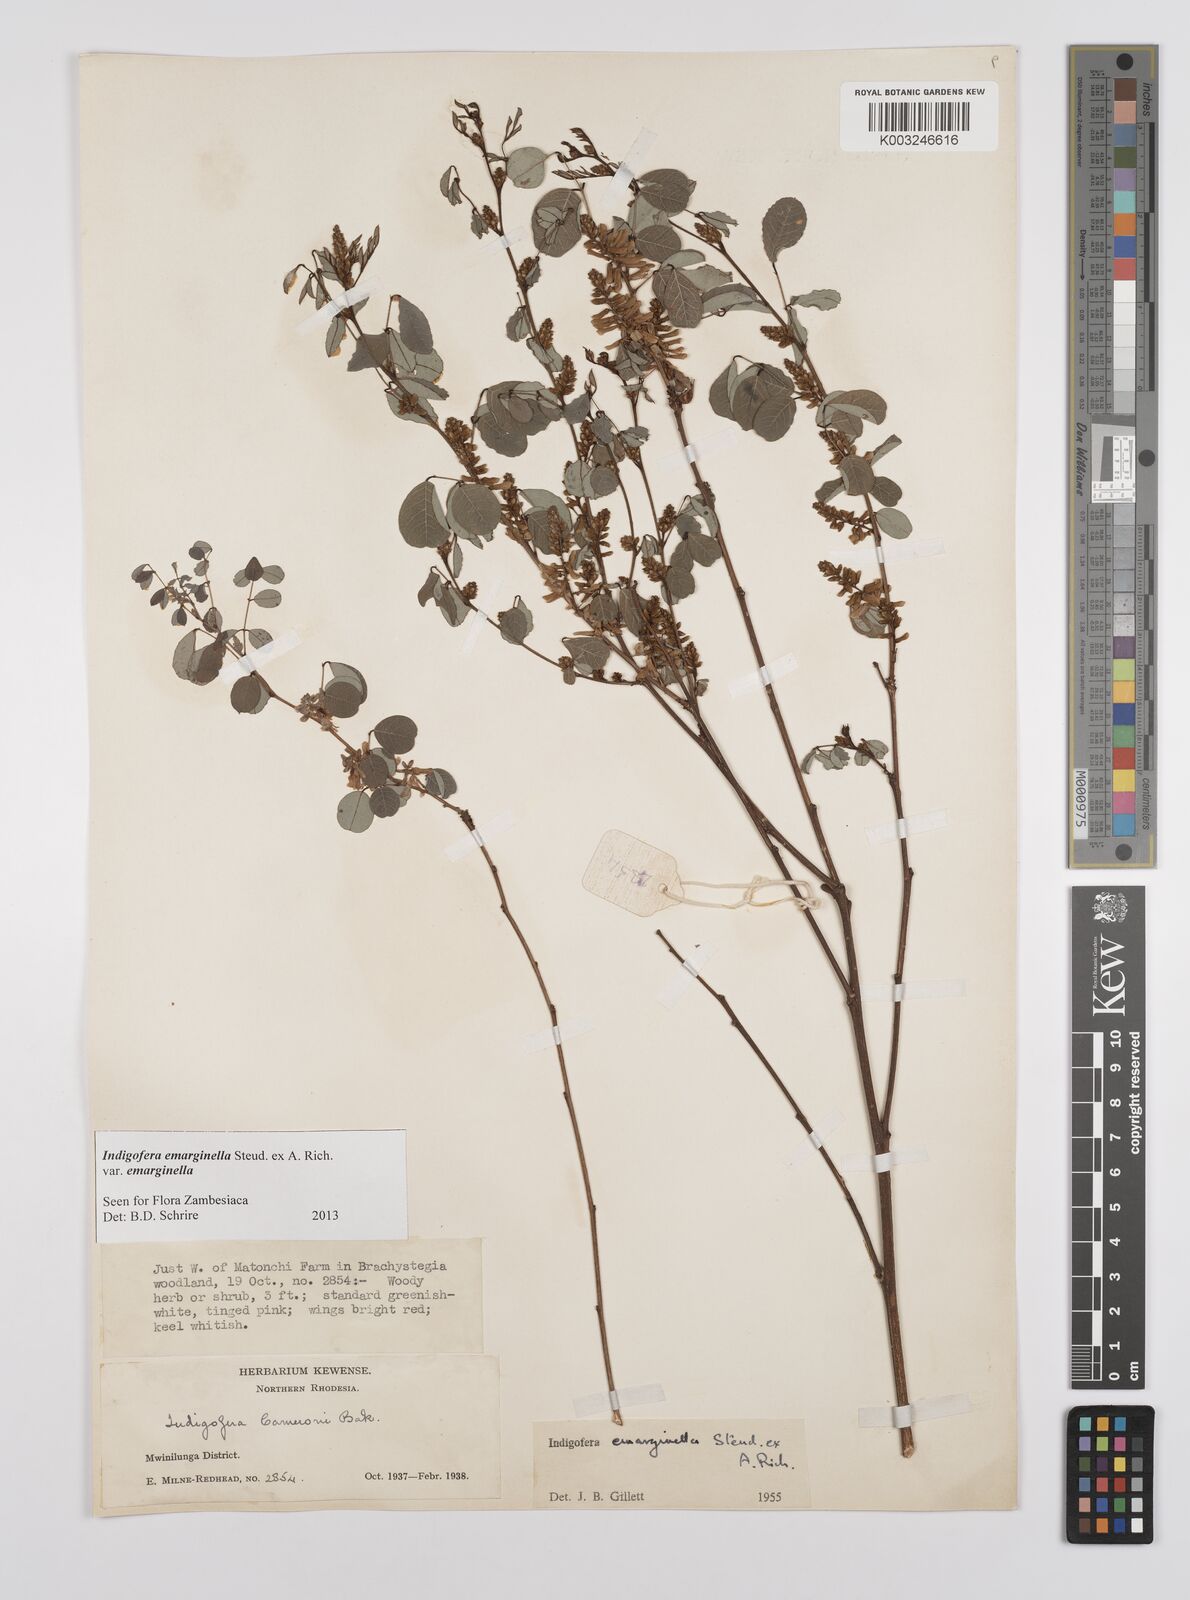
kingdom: Plantae
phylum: Tracheophyta
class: Magnoliopsida
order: Fabales
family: Fabaceae
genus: Indigofera
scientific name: Indigofera emarginella
